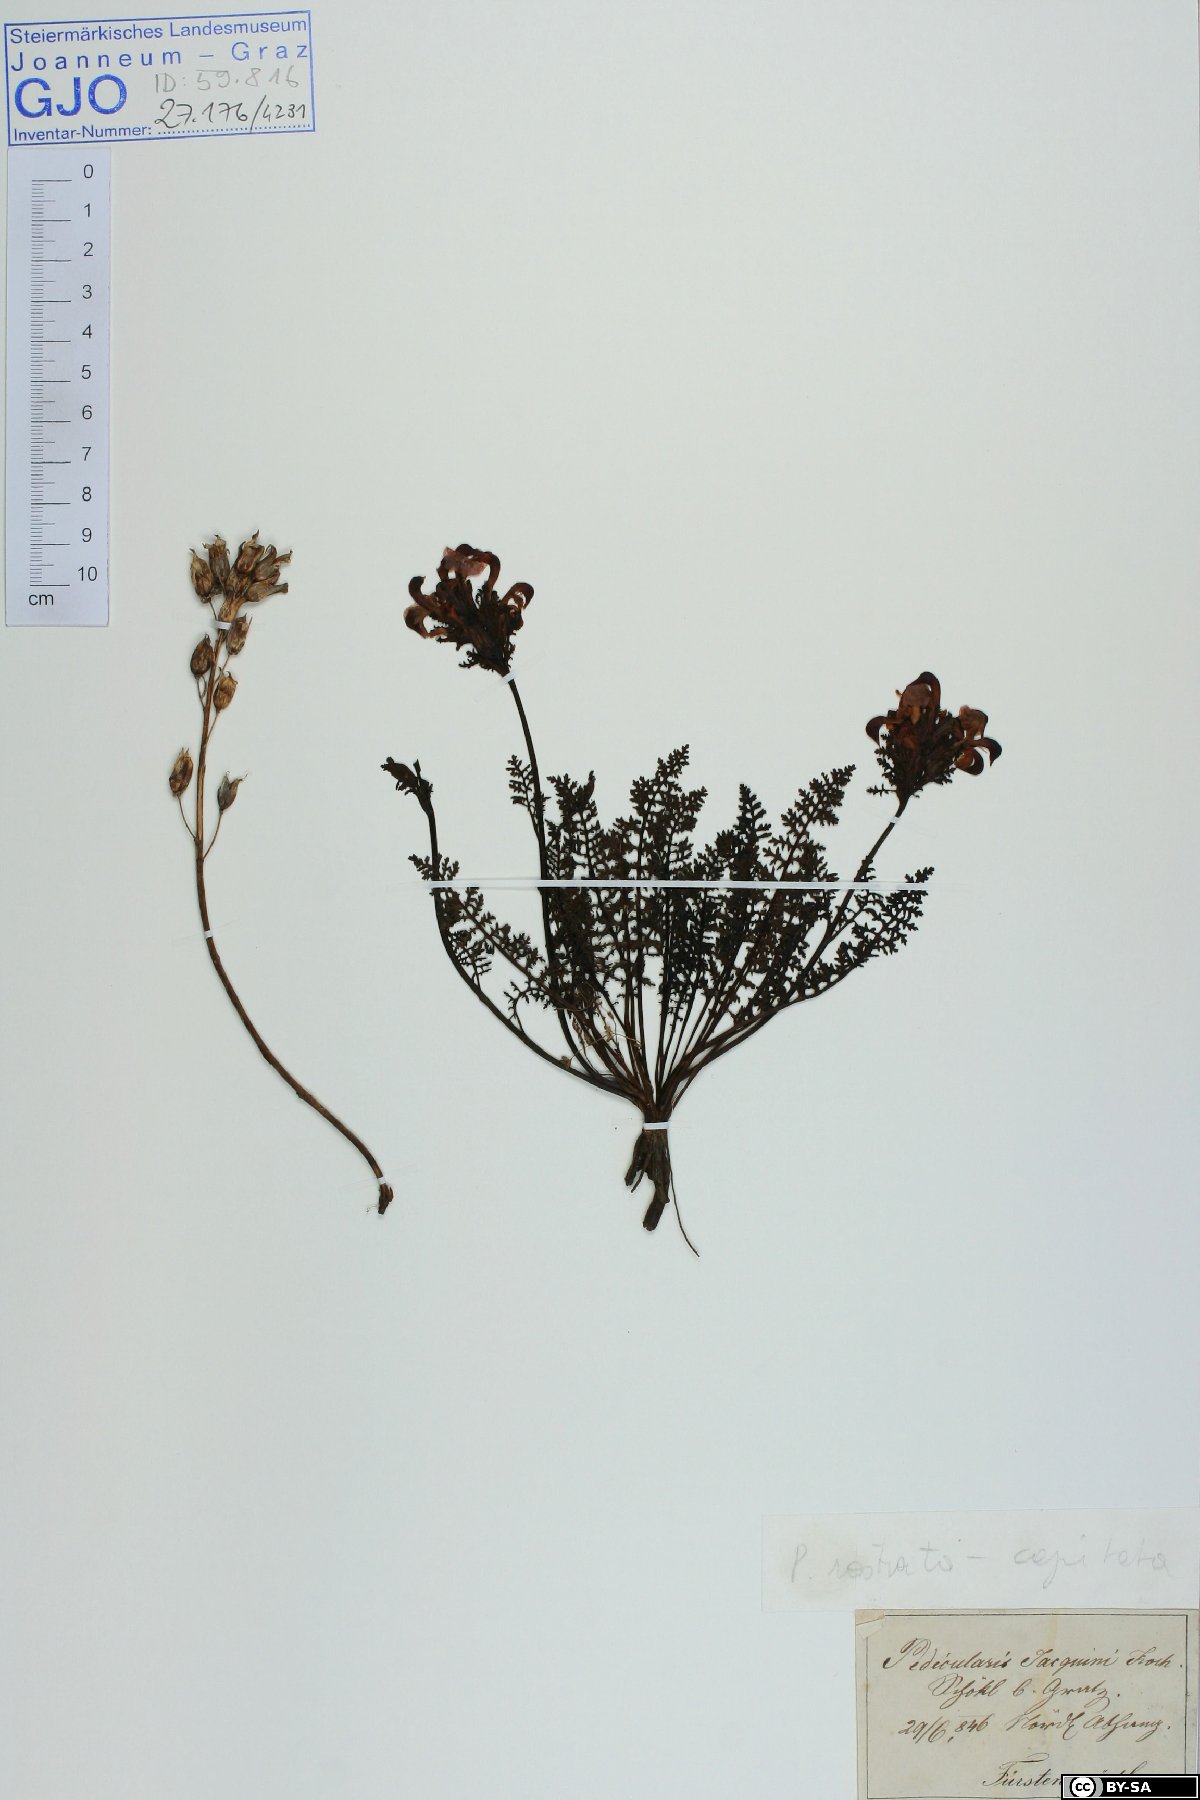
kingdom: Plantae
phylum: Tracheophyta
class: Magnoliopsida
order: Lamiales
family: Orobanchaceae
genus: Pedicularis
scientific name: Pedicularis rostratocapitata
